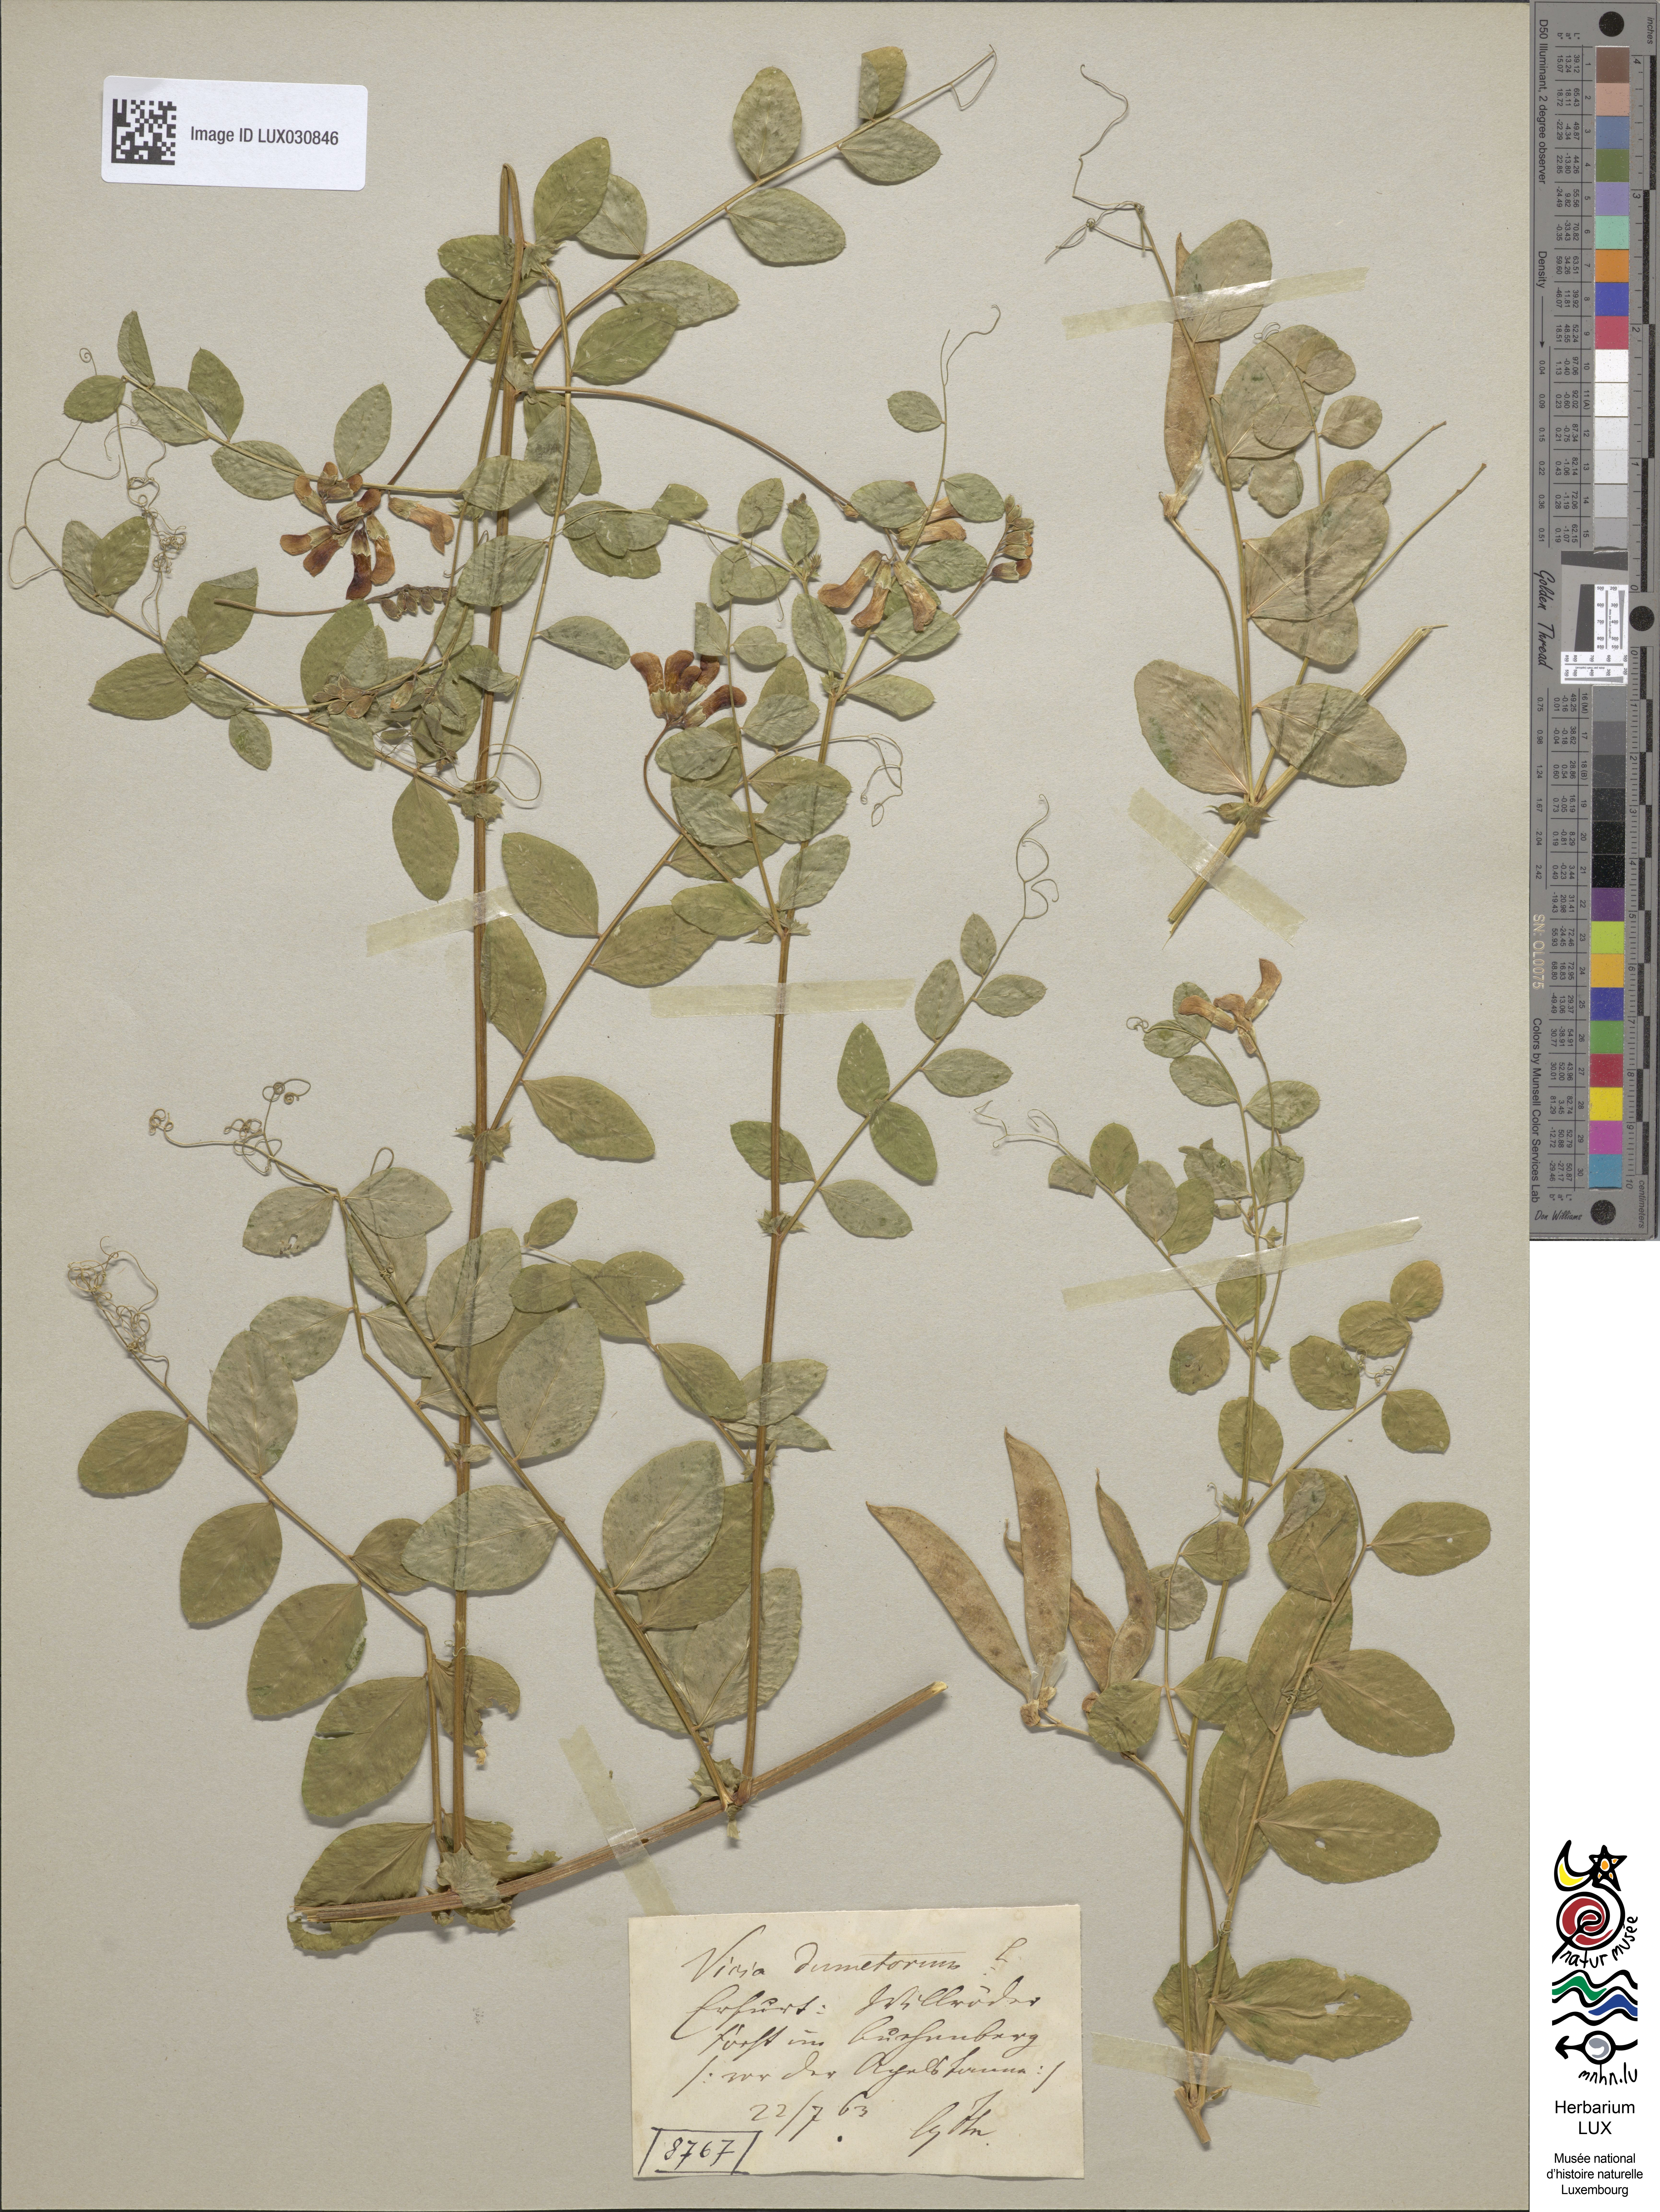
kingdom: Plantae
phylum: Tracheophyta
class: Magnoliopsida
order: Fabales
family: Fabaceae
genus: Vicia
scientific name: Vicia dumetorum
